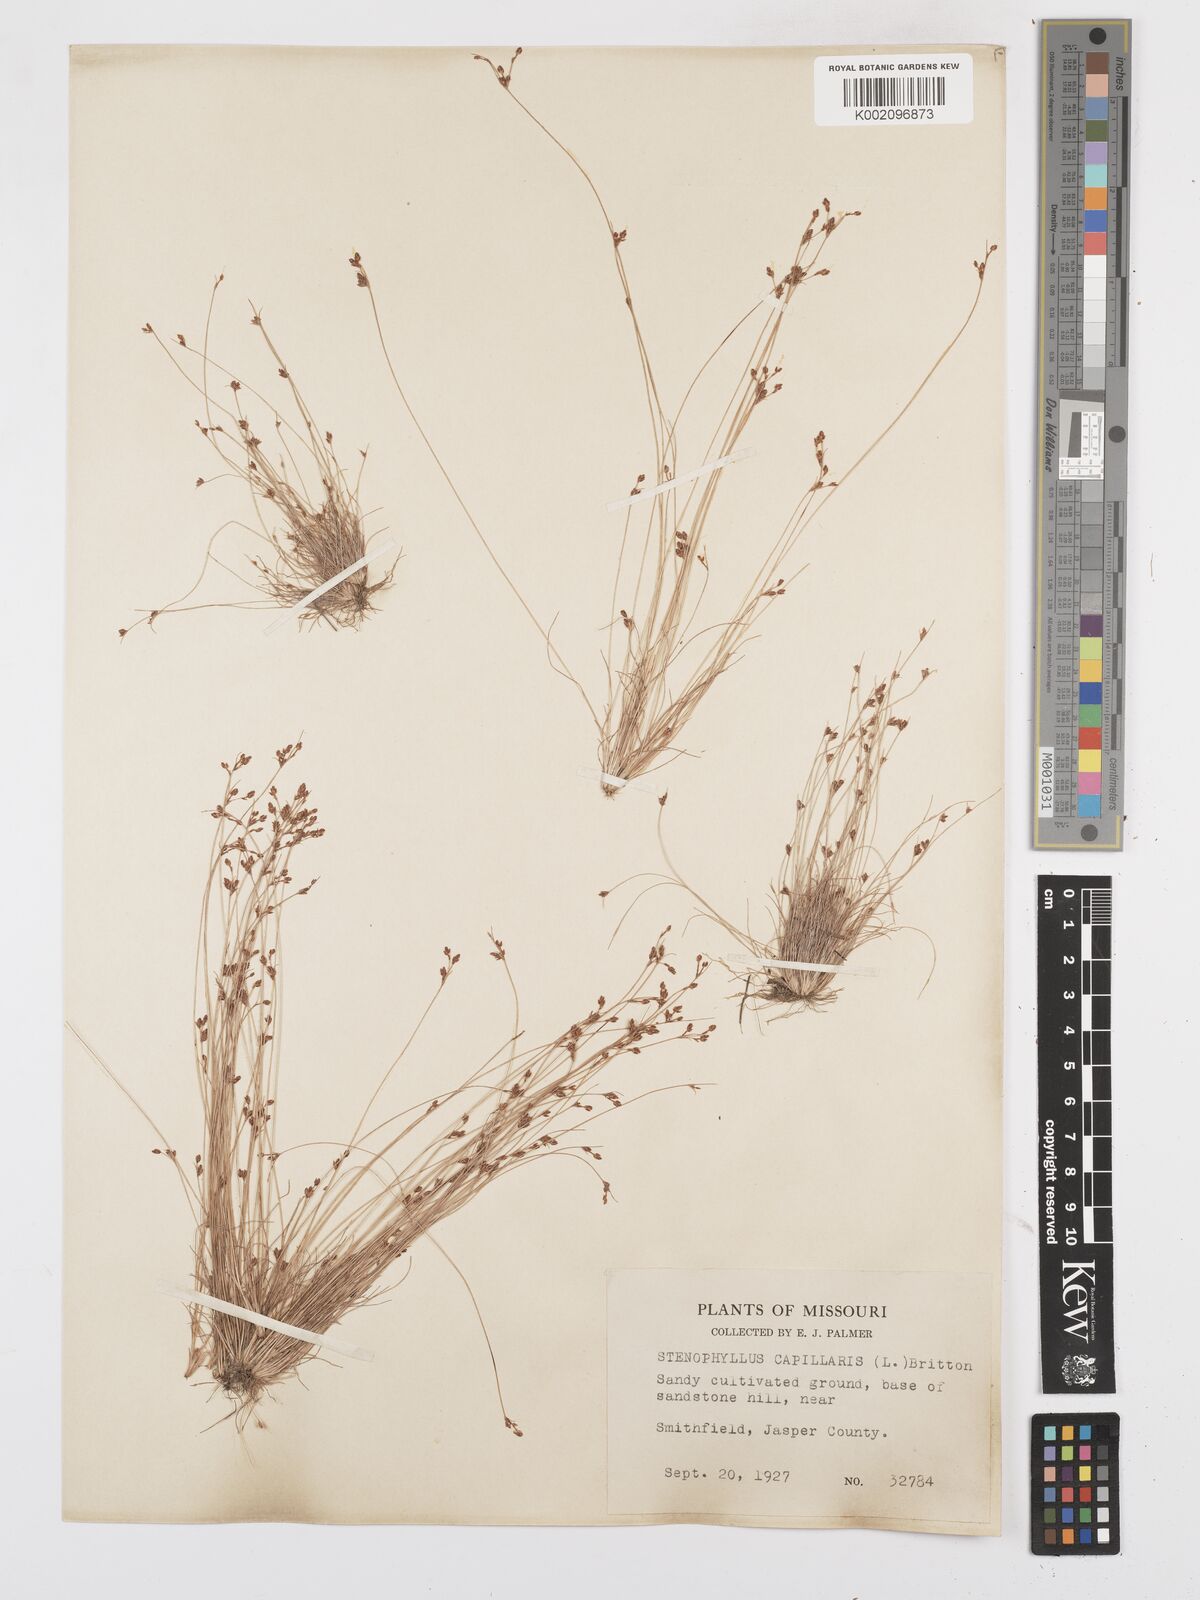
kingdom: Plantae
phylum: Tracheophyta
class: Liliopsida
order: Poales
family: Cyperaceae
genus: Bulbostylis
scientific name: Bulbostylis capillaris
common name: Densetuft hairsedge
